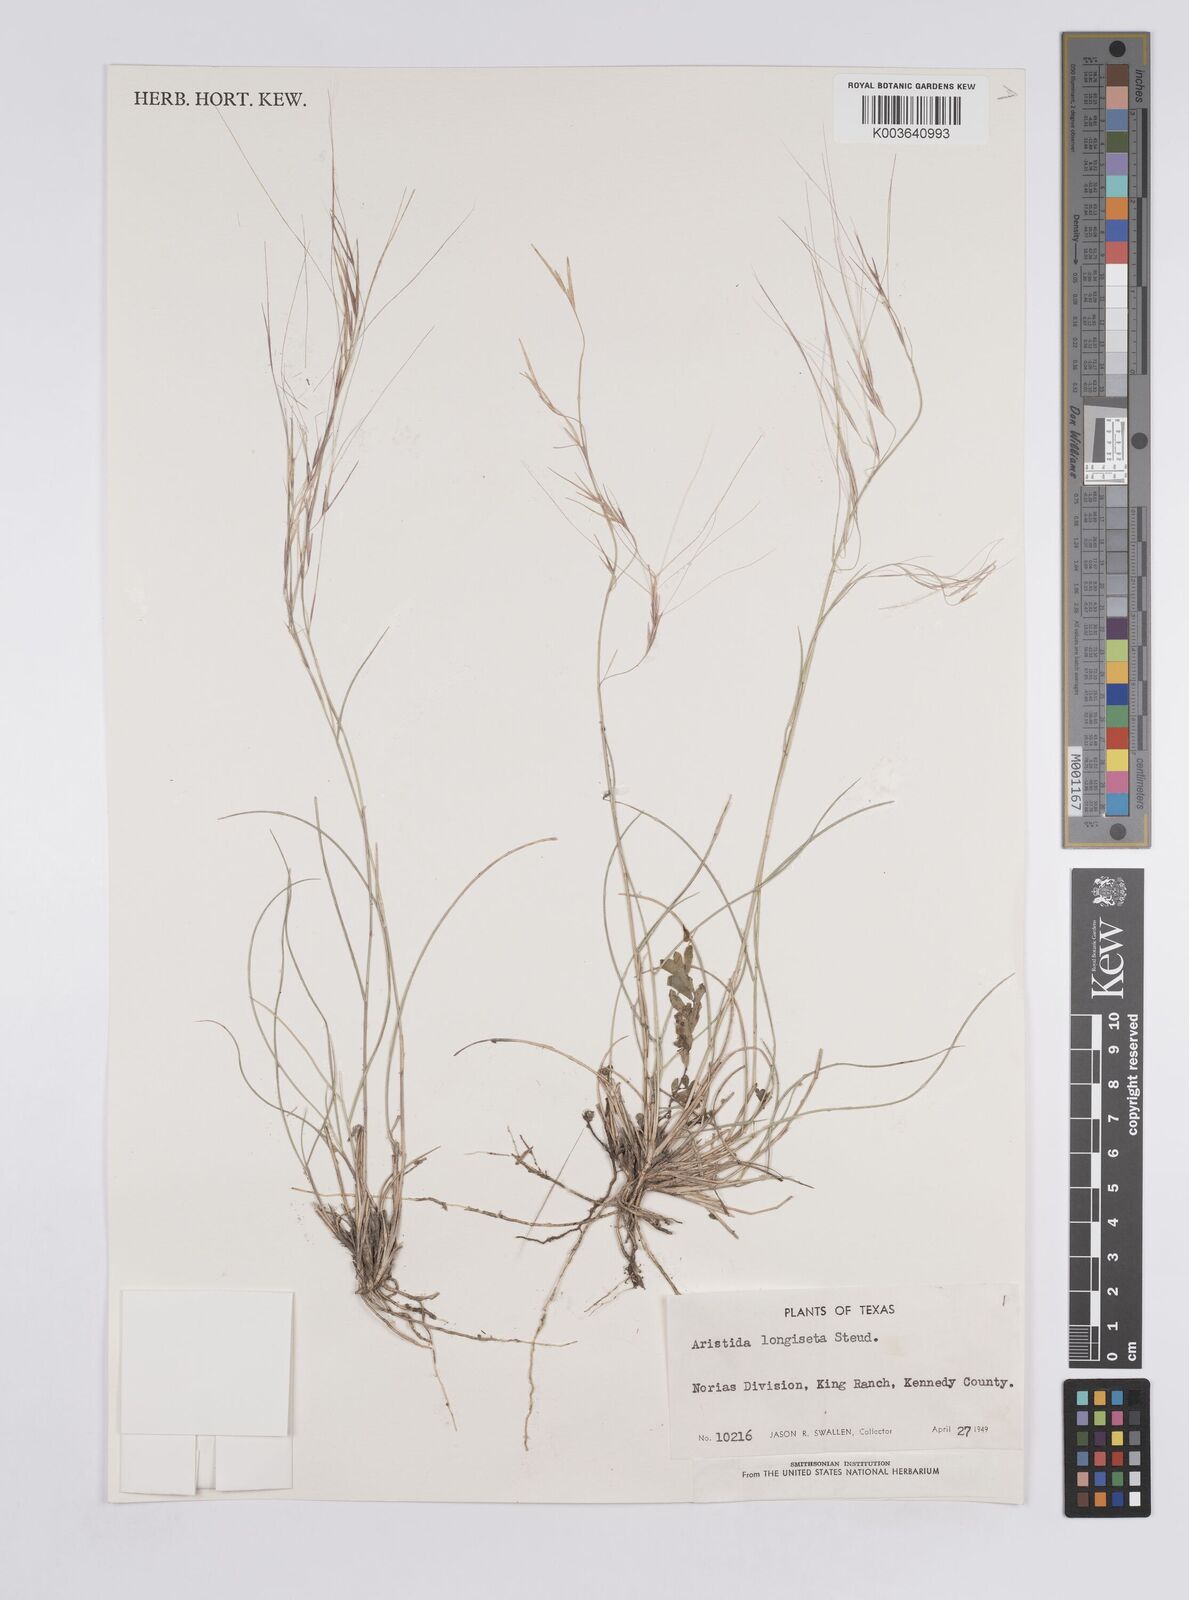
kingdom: Plantae
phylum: Tracheophyta
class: Liliopsida
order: Poales
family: Poaceae
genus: Aristida
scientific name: Aristida purpurea
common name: Purple threeawn
